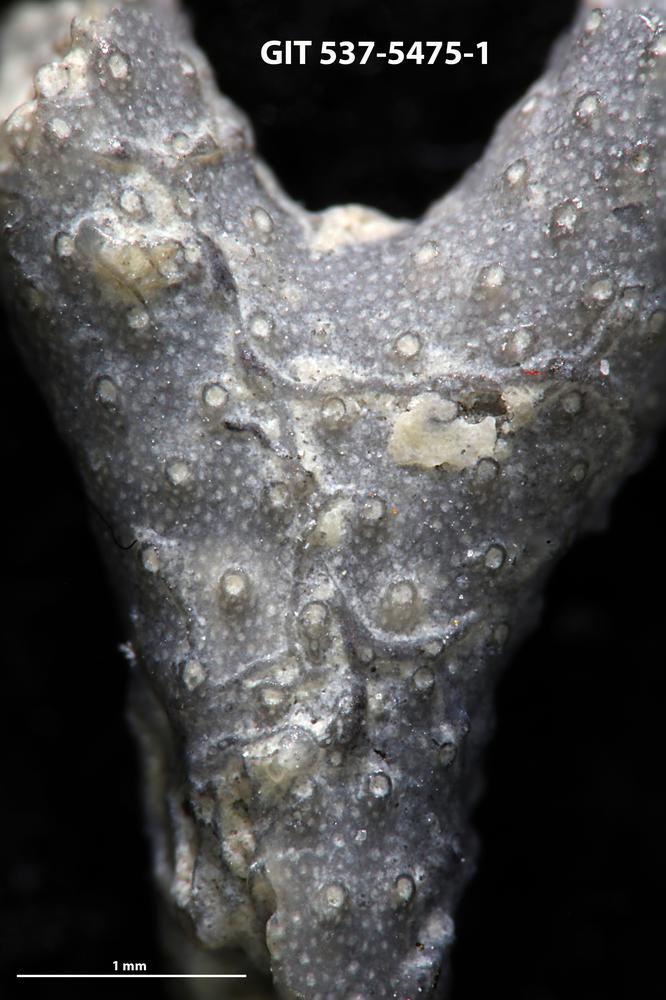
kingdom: Animalia
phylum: Bryozoa
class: Stenolaemata
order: Cyclostomatida
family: Corynotrypidae
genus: Corynotrypa
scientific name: Corynotrypa
